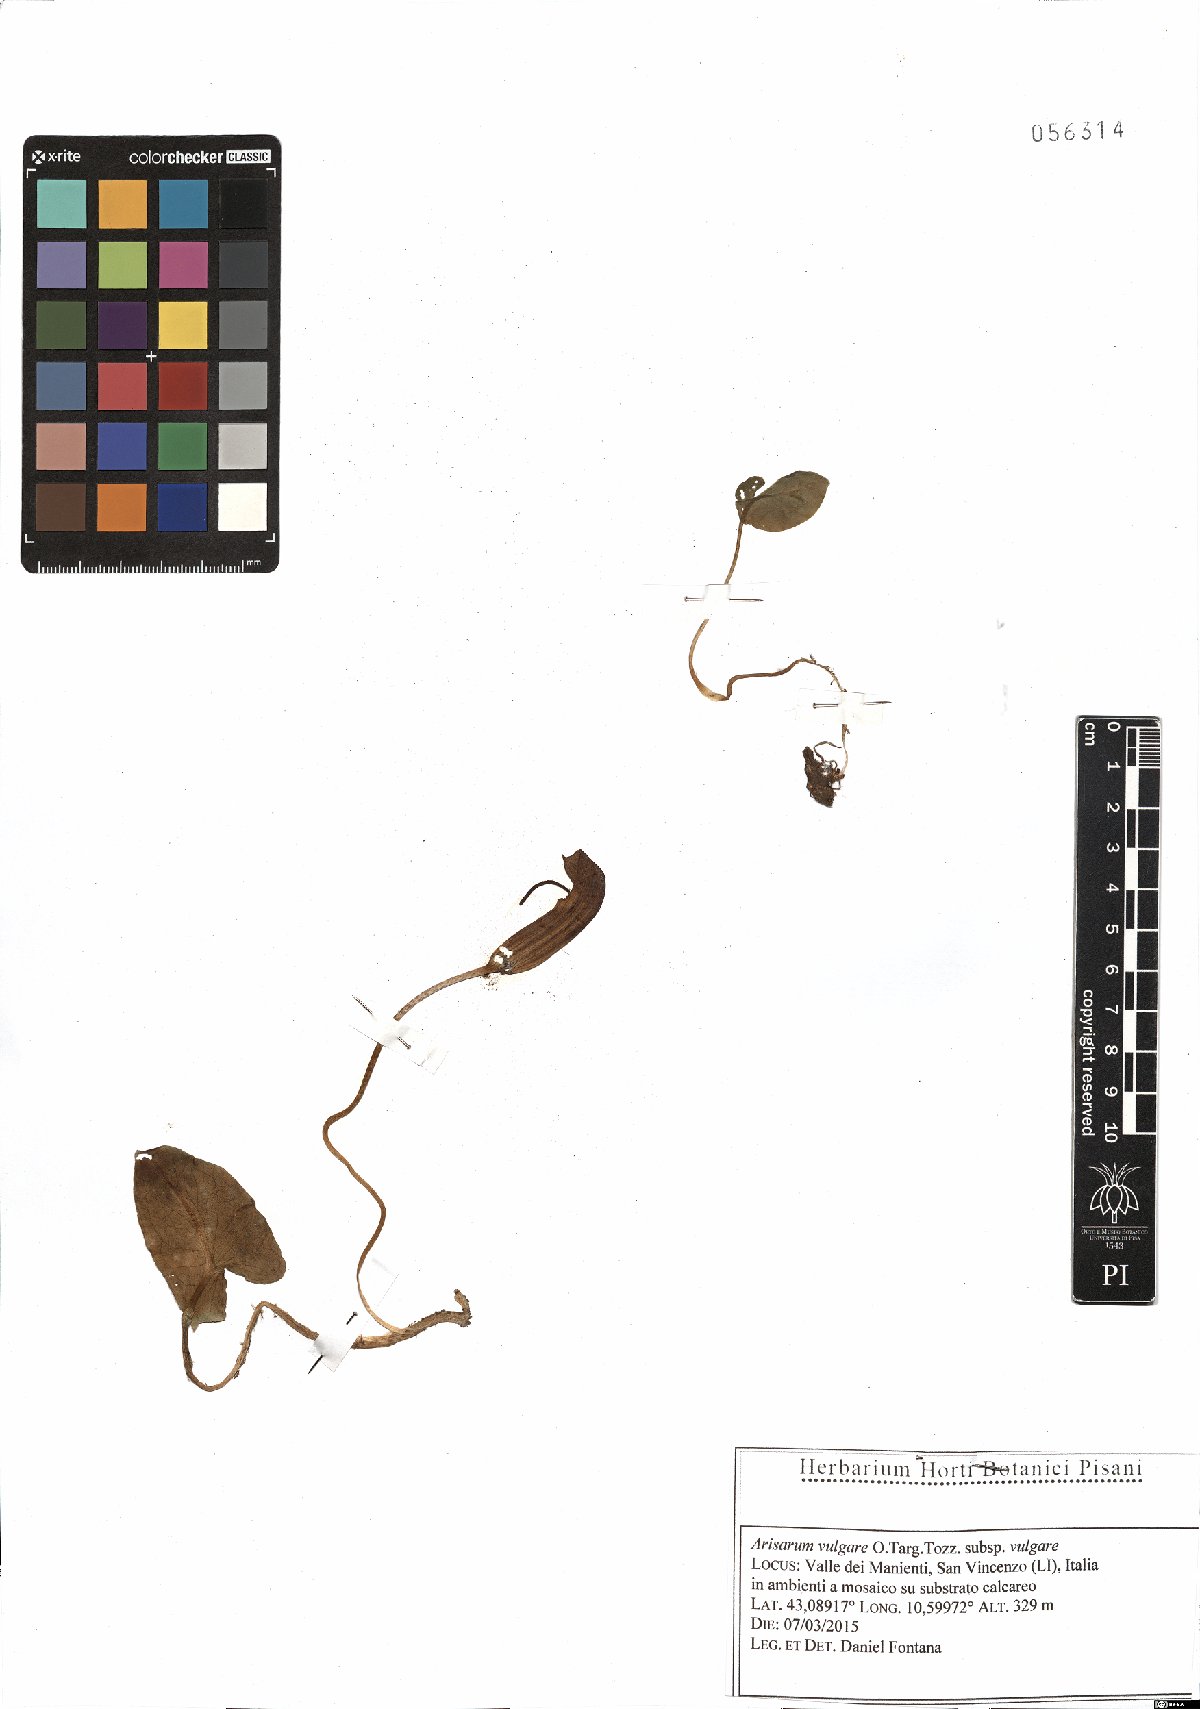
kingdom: Plantae
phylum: Tracheophyta
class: Liliopsida
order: Alismatales
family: Araceae
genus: Arisarum
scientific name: Arisarum vulgare
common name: Common arisarum
